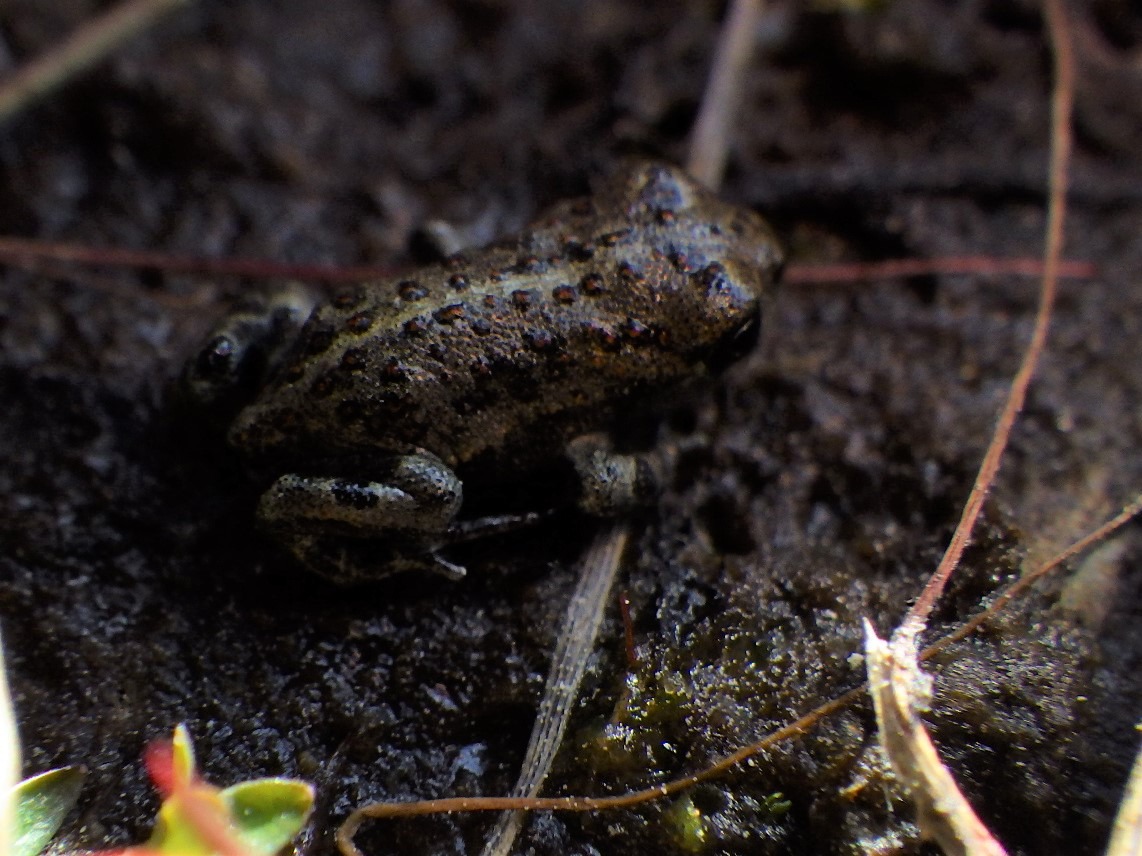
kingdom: Animalia
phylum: Chordata
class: Amphibia
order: Anura
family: Bufonidae
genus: Epidalea
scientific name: Epidalea calamita
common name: Strandtudse
